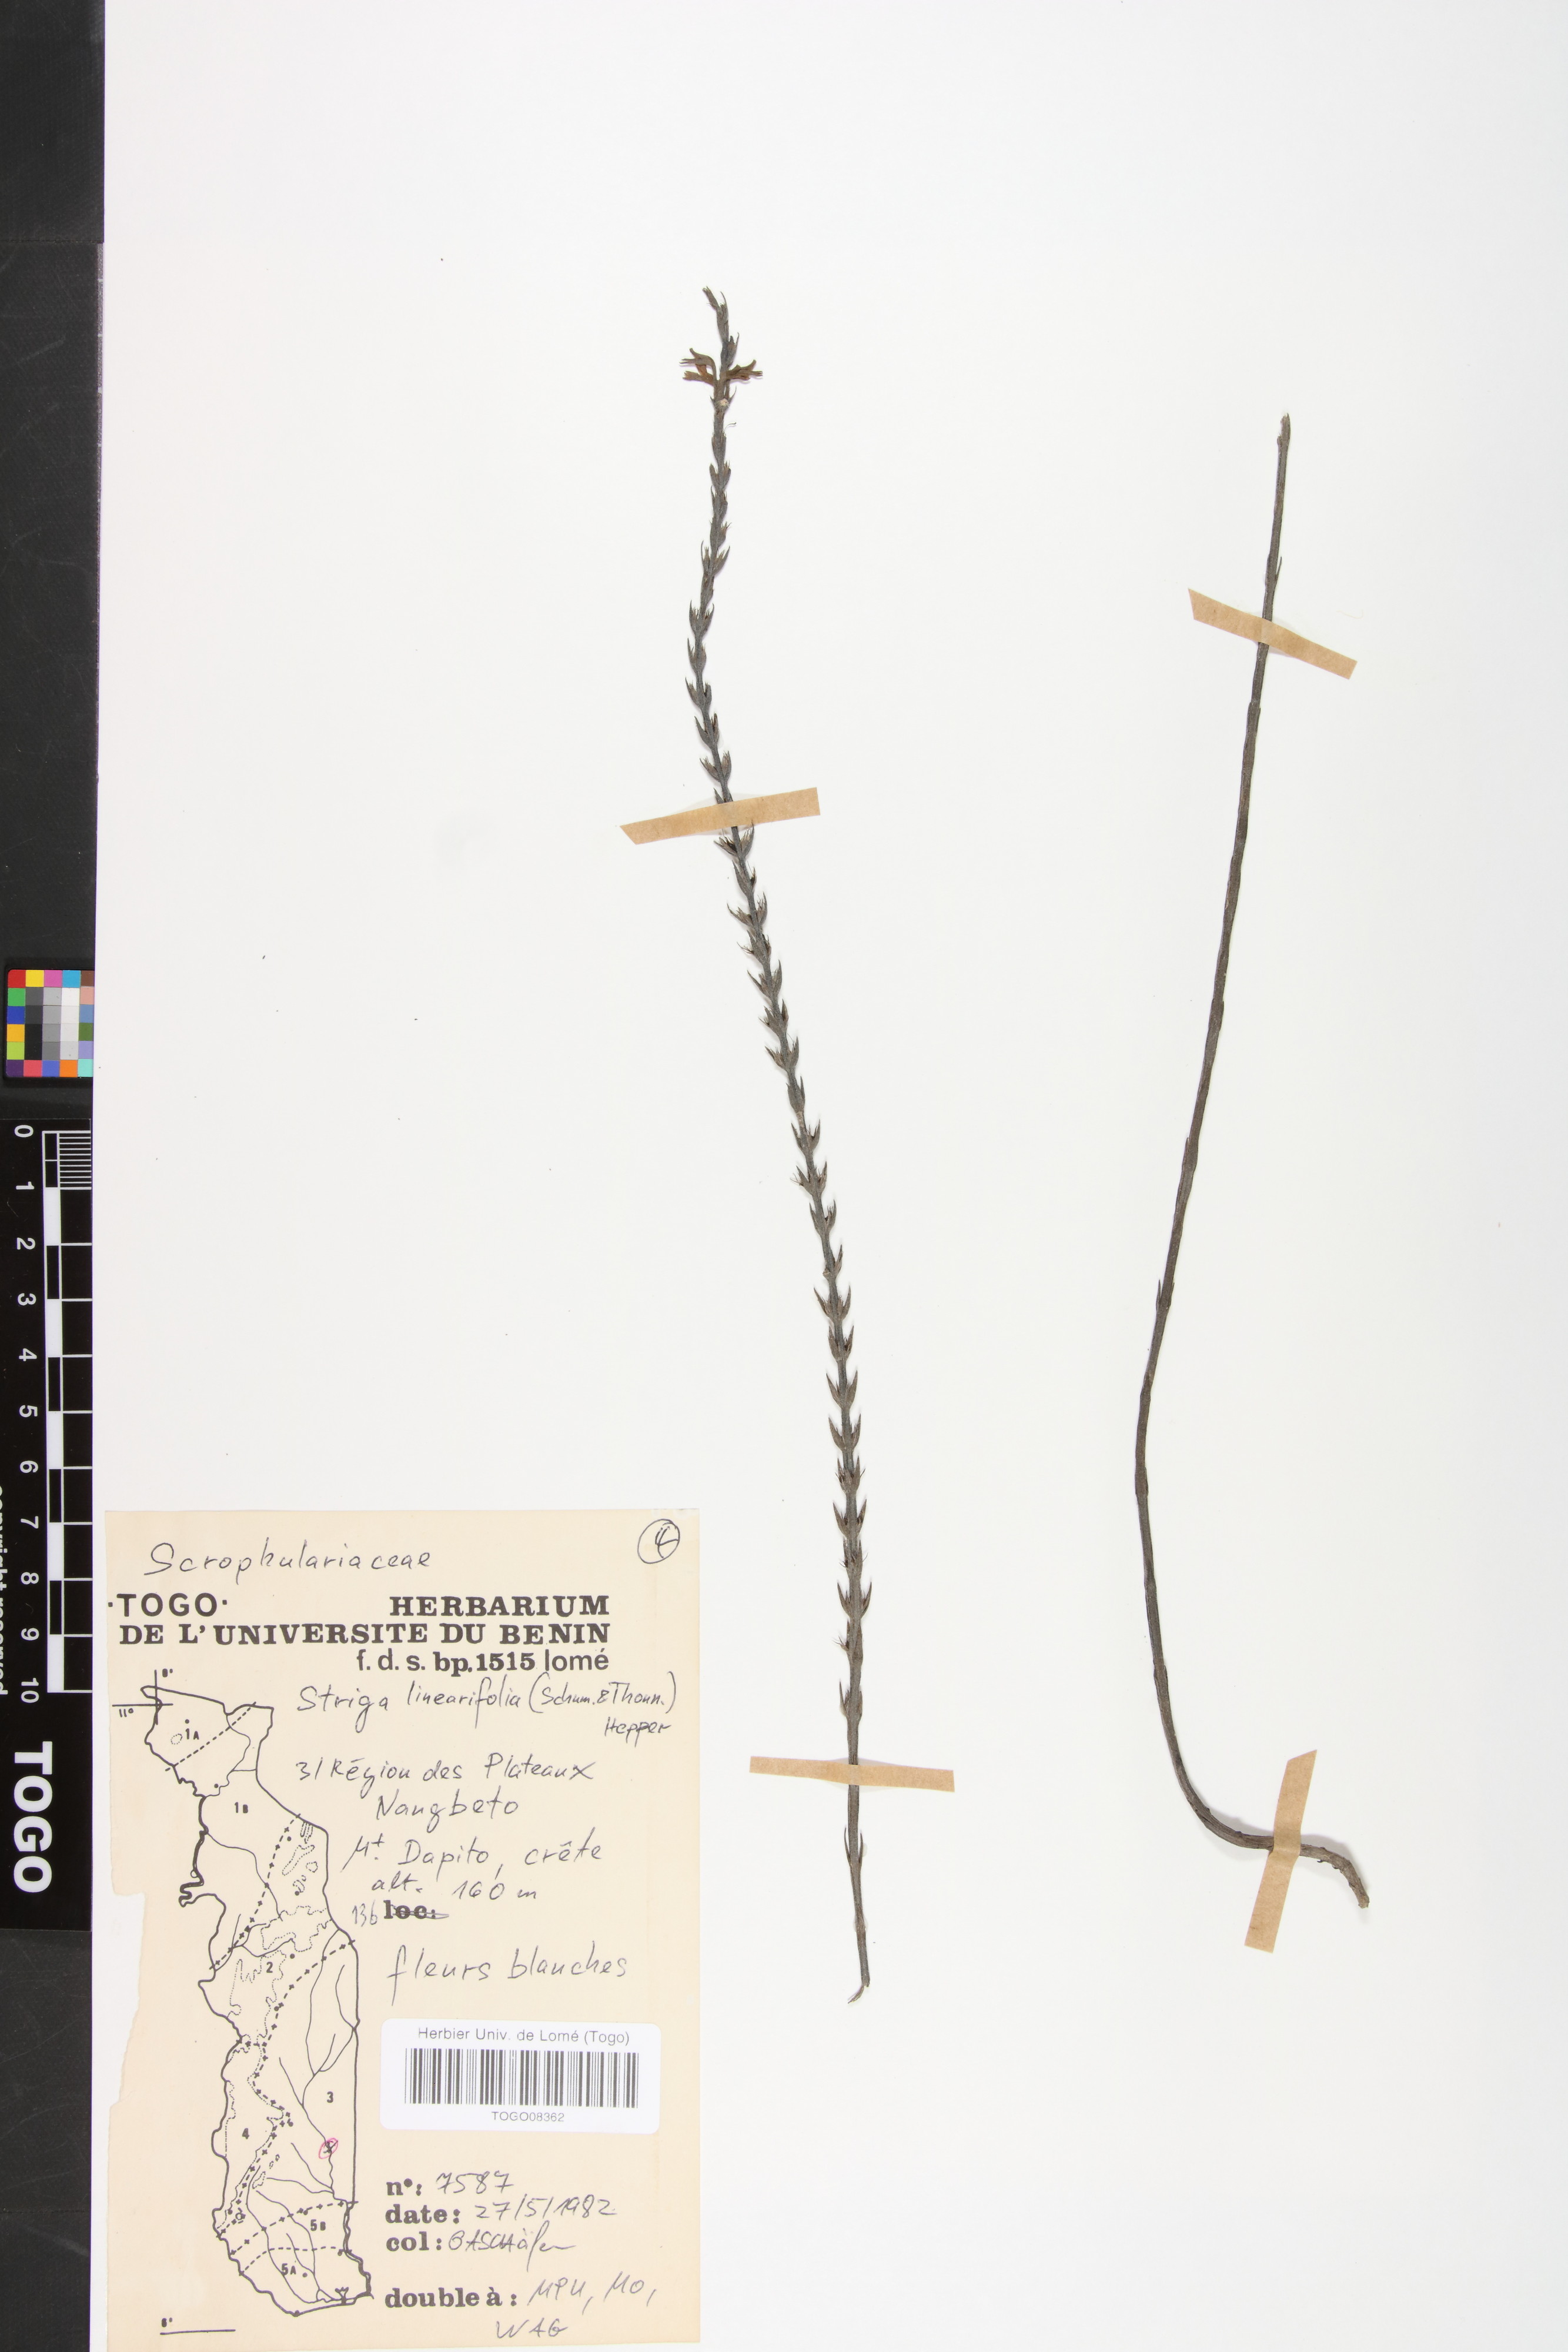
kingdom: Plantae
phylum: Tracheophyta
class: Magnoliopsida
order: Lamiales
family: Orobanchaceae
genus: Striga
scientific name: Striga linearifolia
